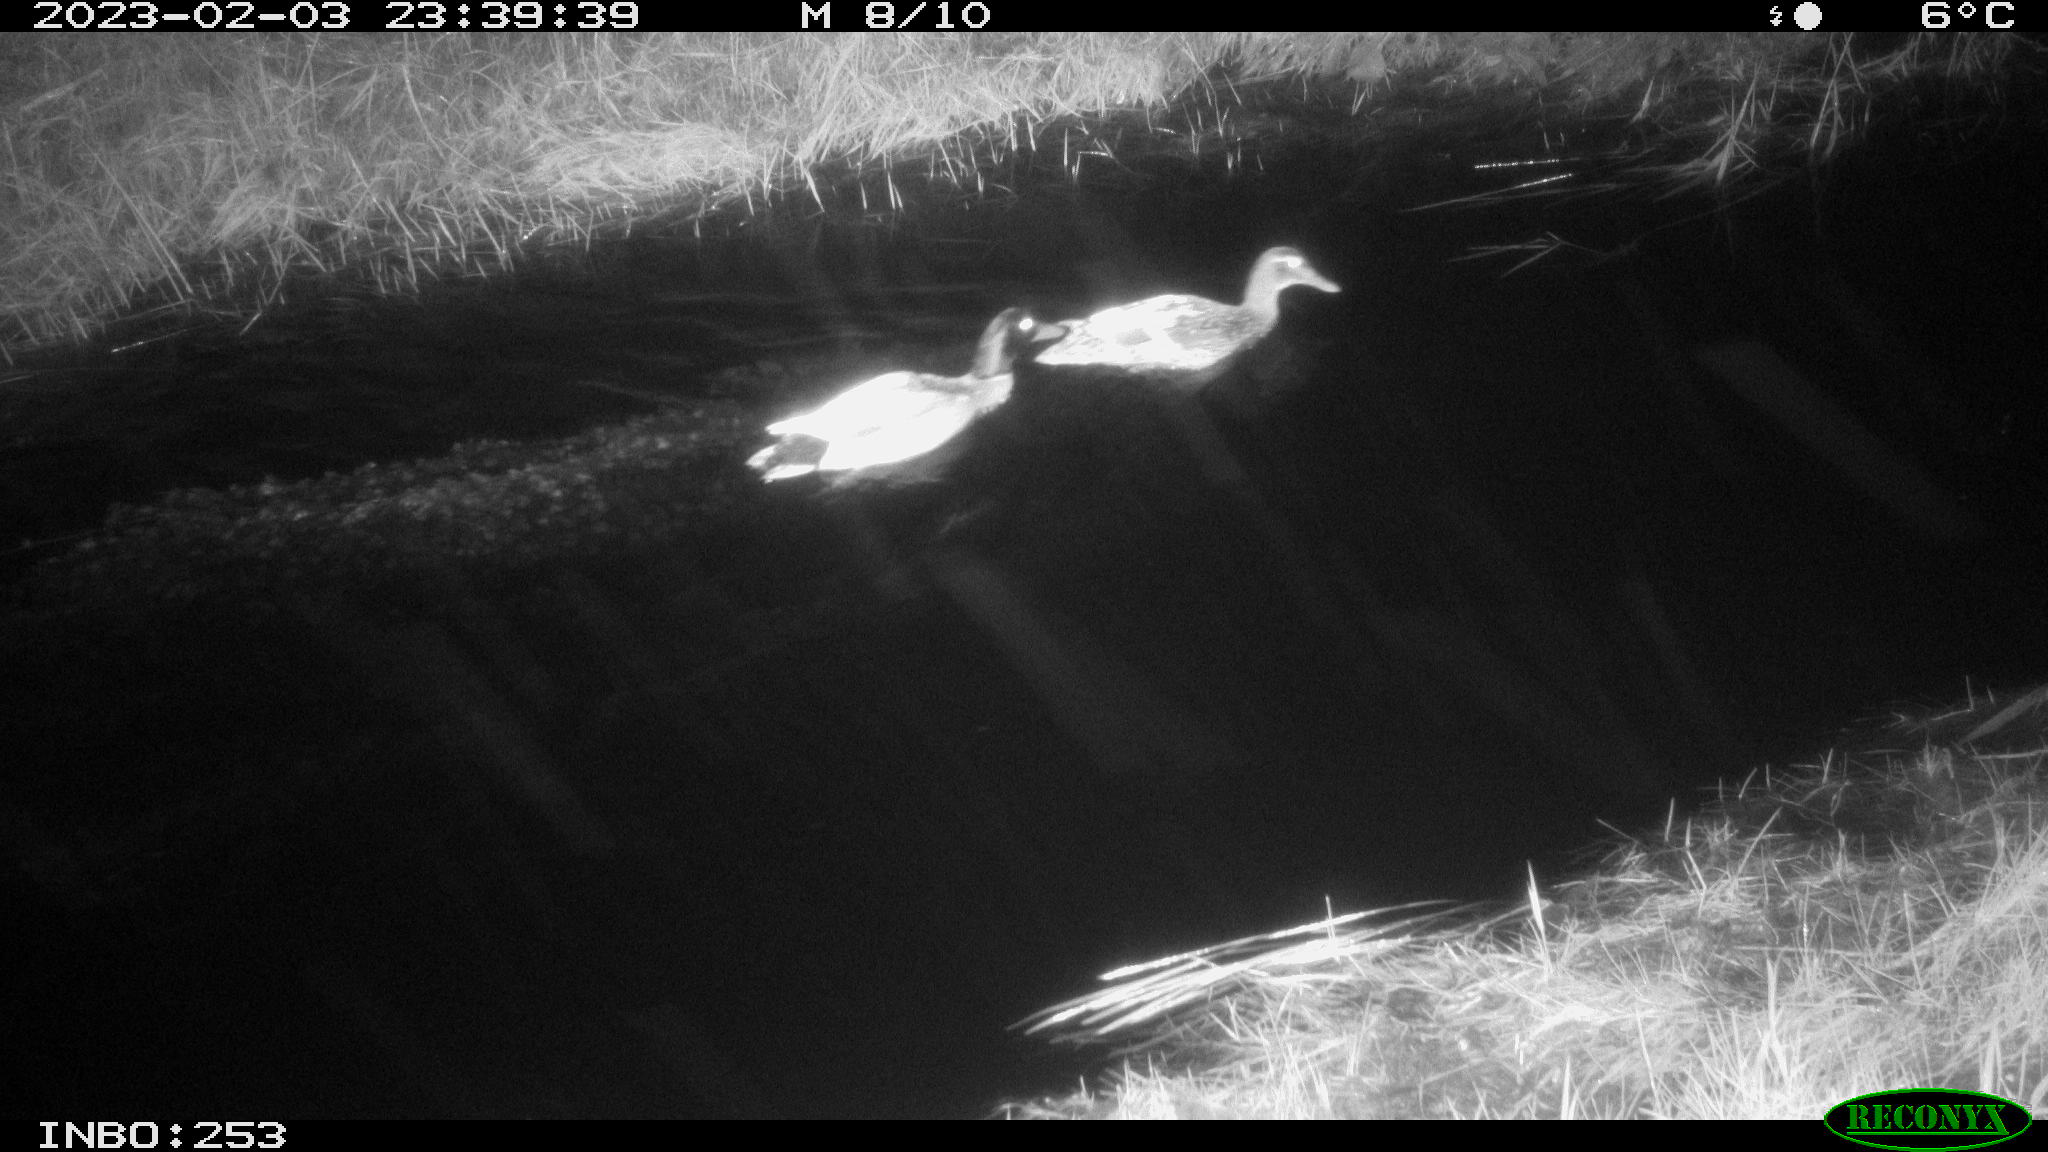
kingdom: Animalia
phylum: Chordata
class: Aves
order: Anseriformes
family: Anatidae
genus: Anas
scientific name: Anas
